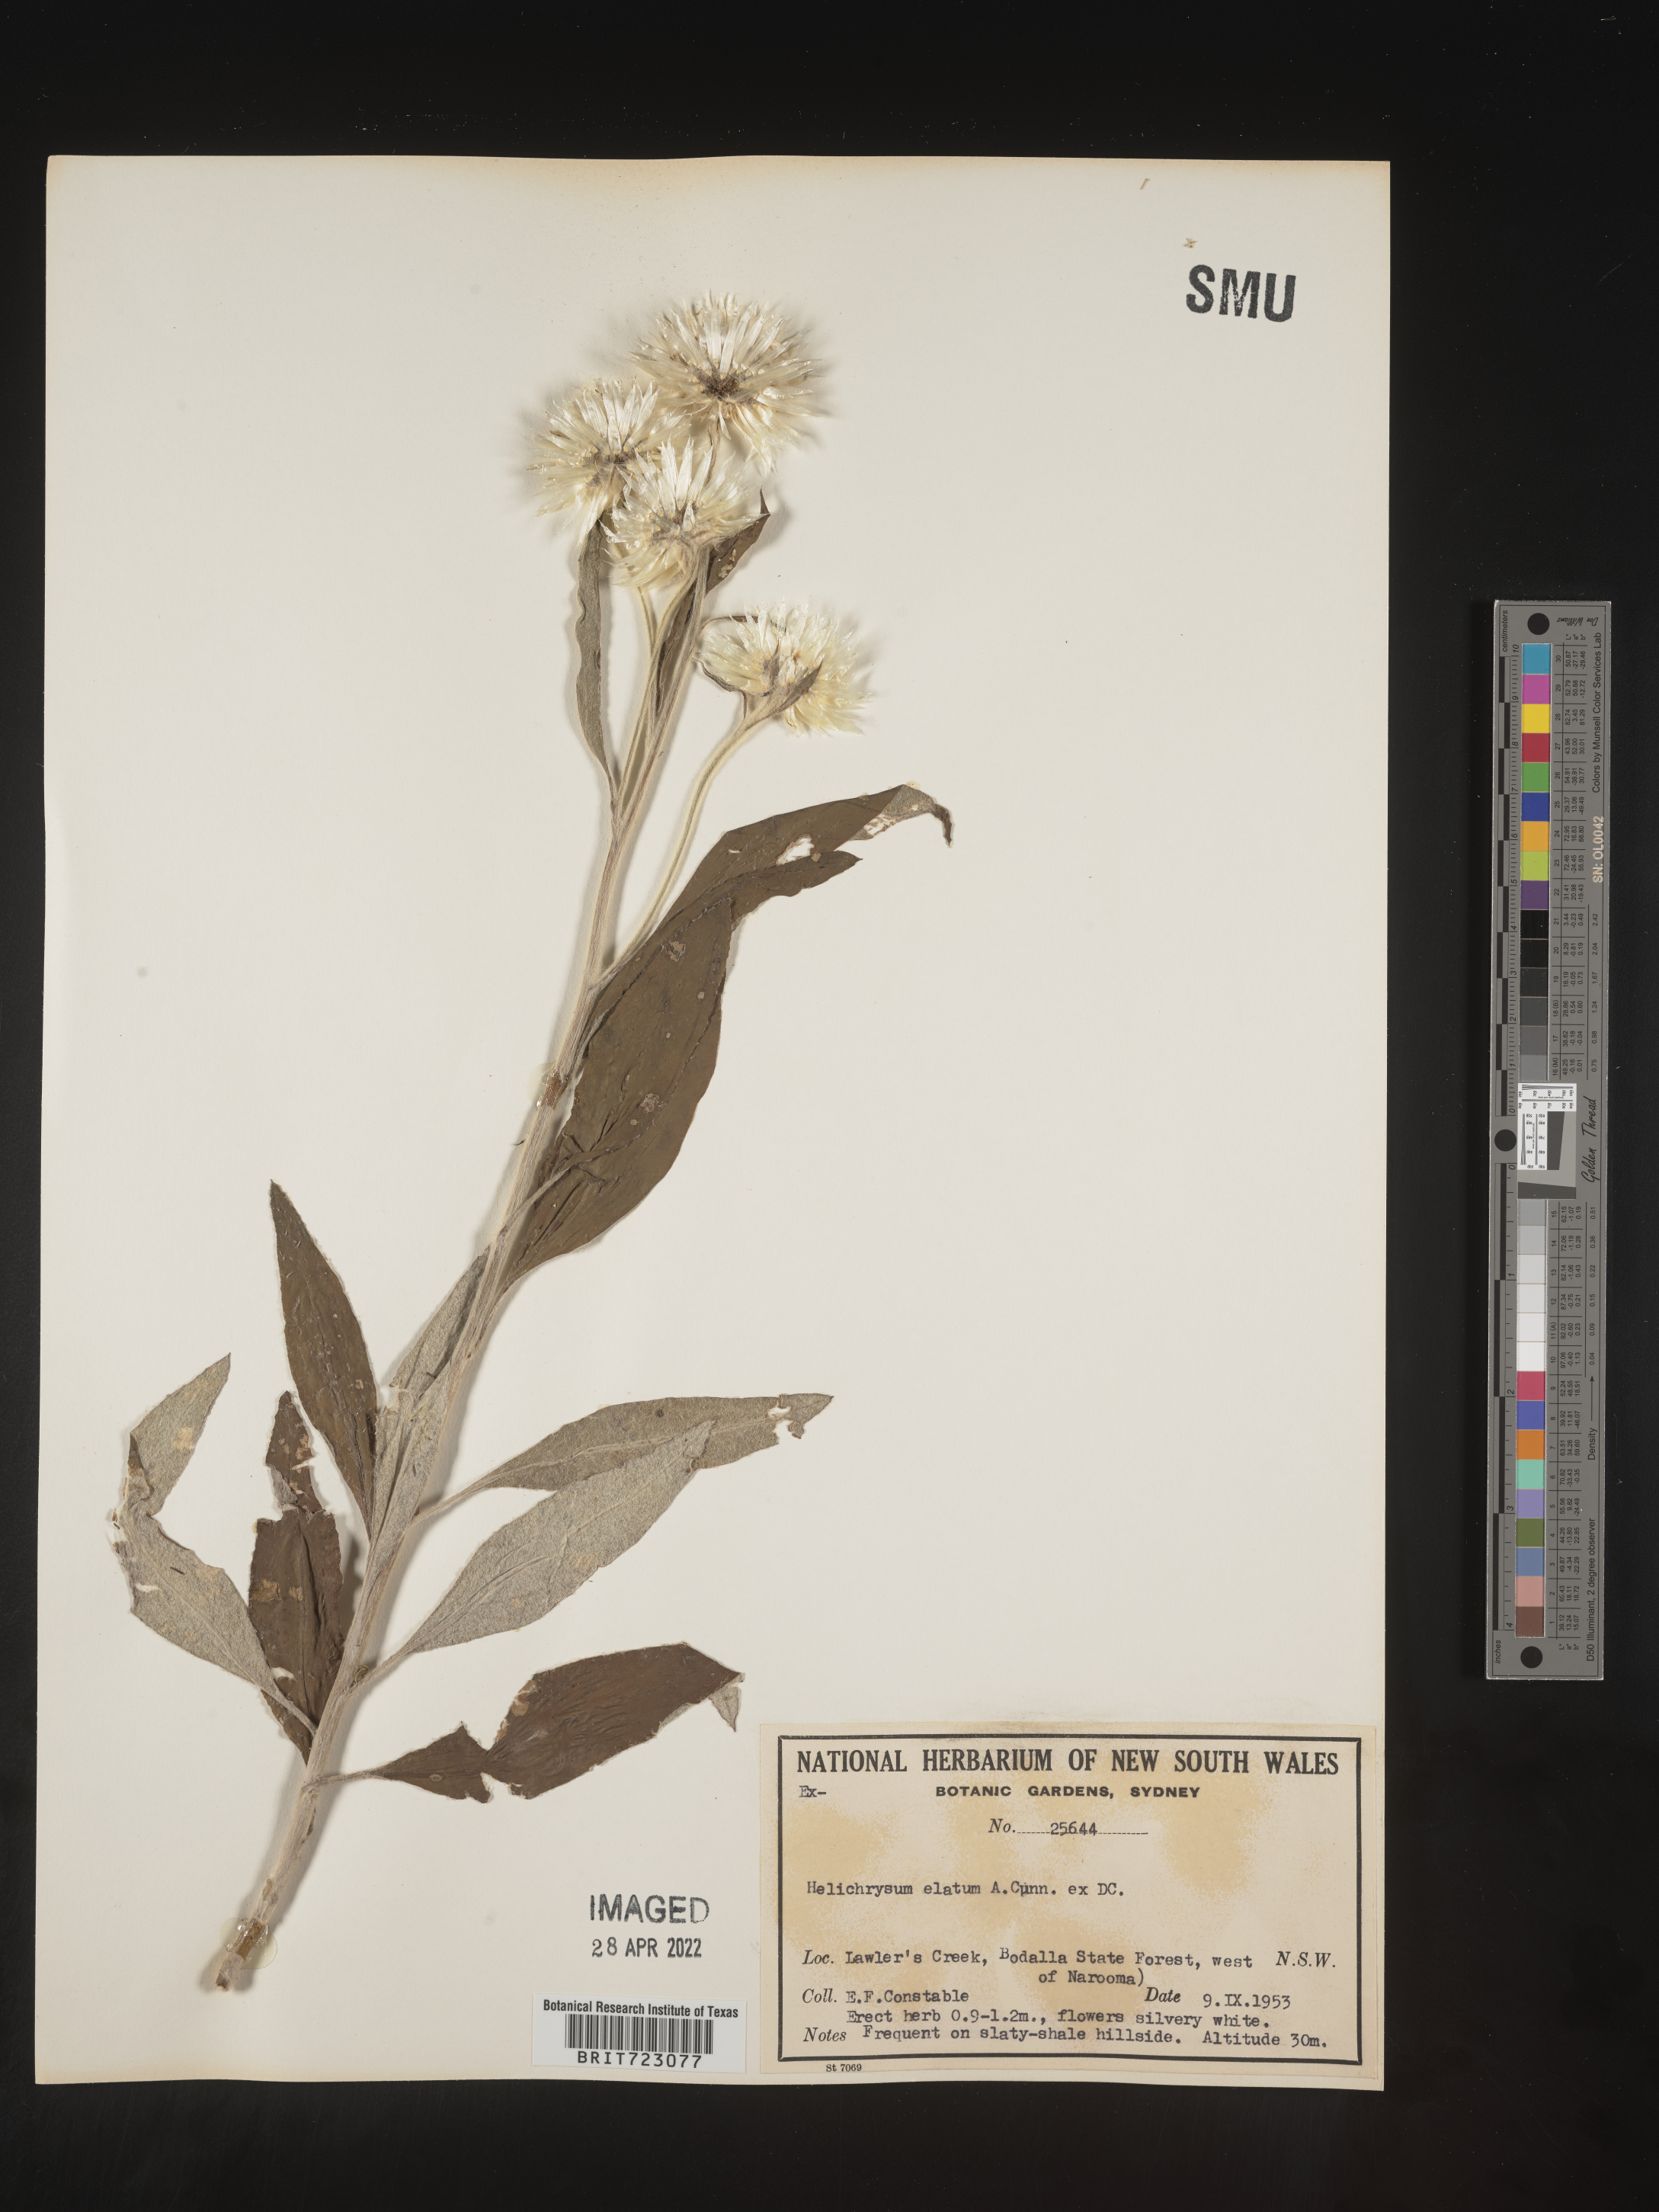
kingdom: Plantae
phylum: Tracheophyta
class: Magnoliopsida
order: Asterales
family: Asteraceae
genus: Helichrysum
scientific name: Helichrysum
